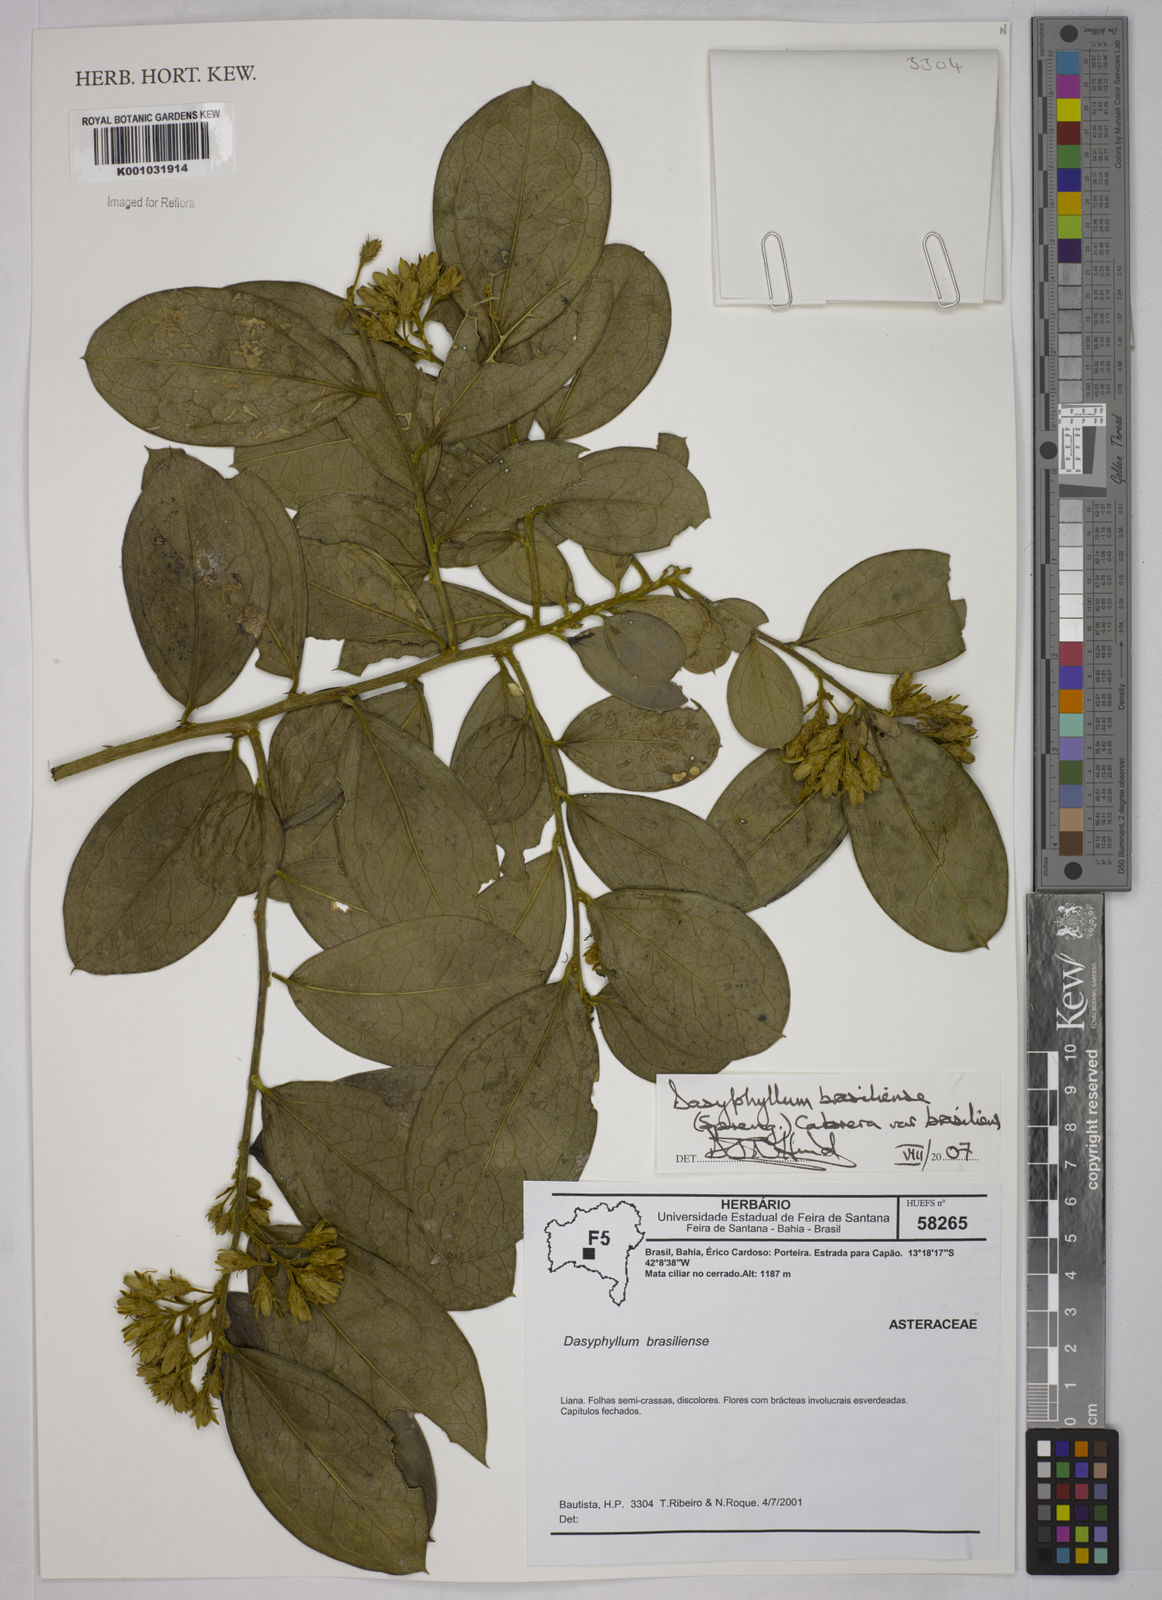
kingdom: Plantae
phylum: Tracheophyta
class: Magnoliopsida
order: Asterales
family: Asteraceae
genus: Dasyphyllum
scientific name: Dasyphyllum brasiliense
